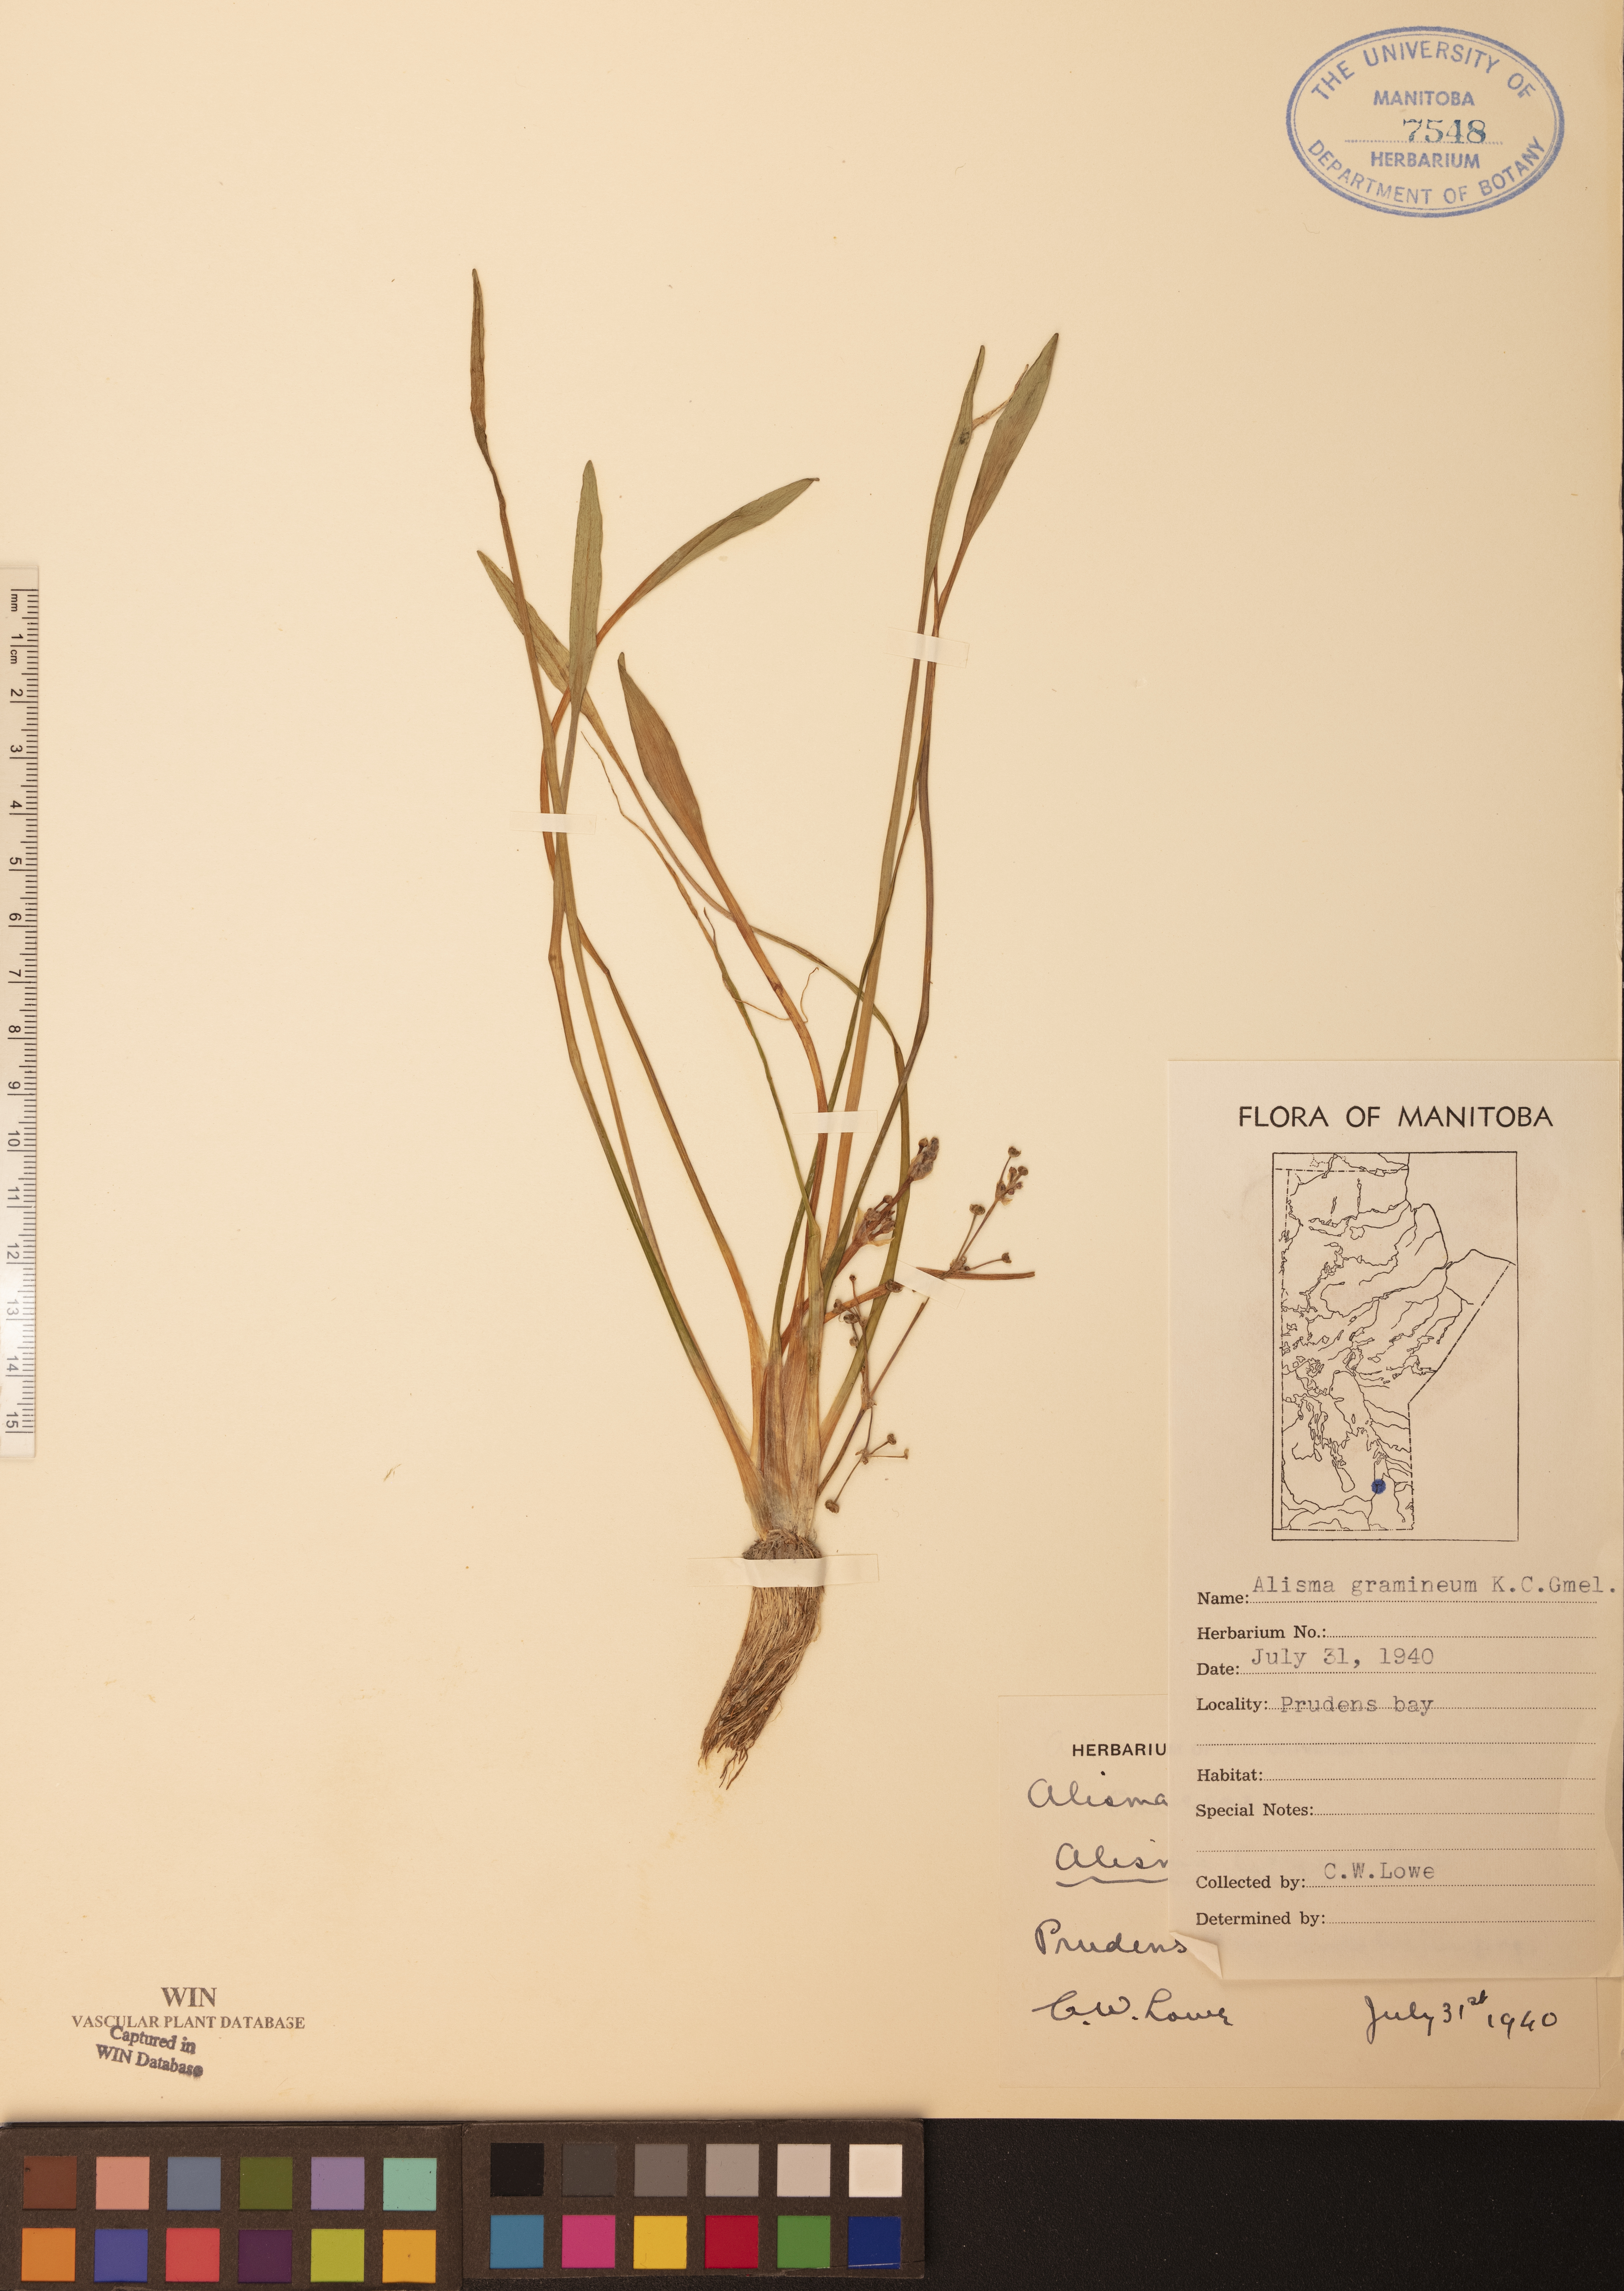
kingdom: Plantae
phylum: Tracheophyta
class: Liliopsida
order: Alismatales
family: Alismataceae
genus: Alisma
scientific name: Alisma gramineum
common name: Ribbon-leaved water-plantain
